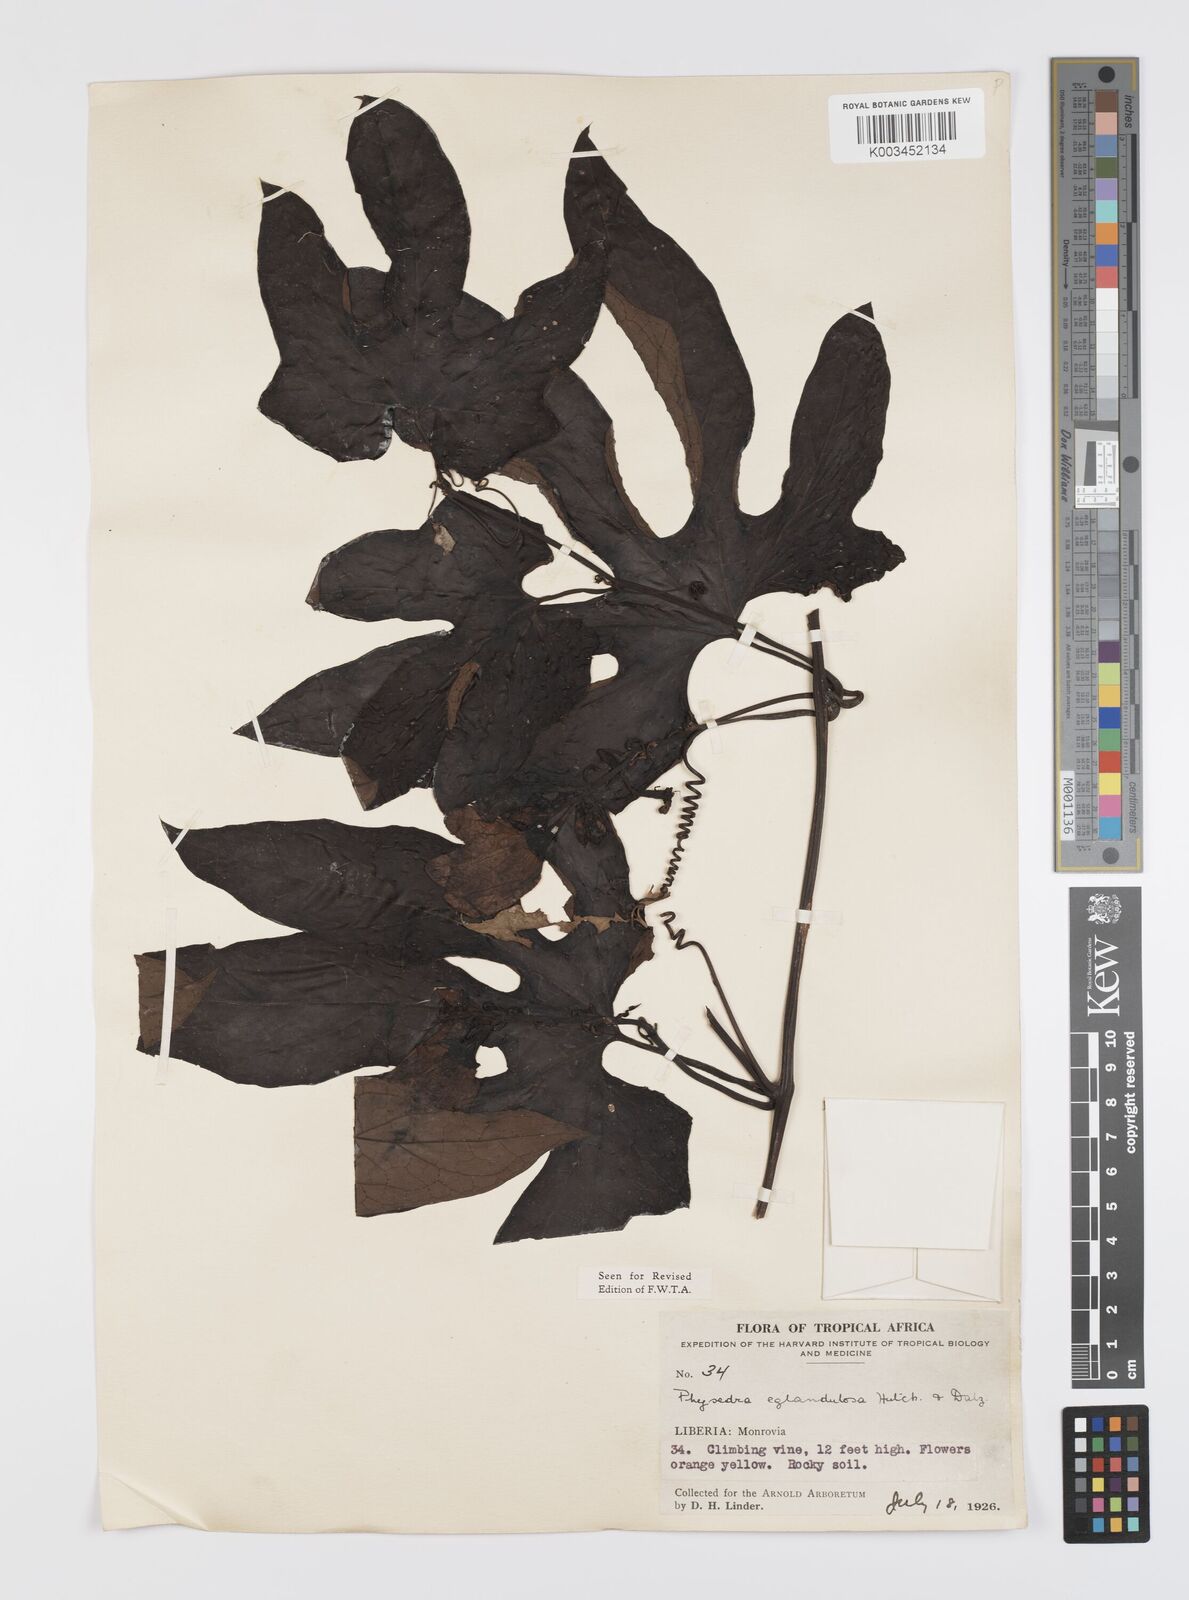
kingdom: Plantae
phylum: Tracheophyta
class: Magnoliopsida
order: Cucurbitales
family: Cucurbitaceae
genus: Ruthalicia
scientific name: Ruthalicia eglandulosa
